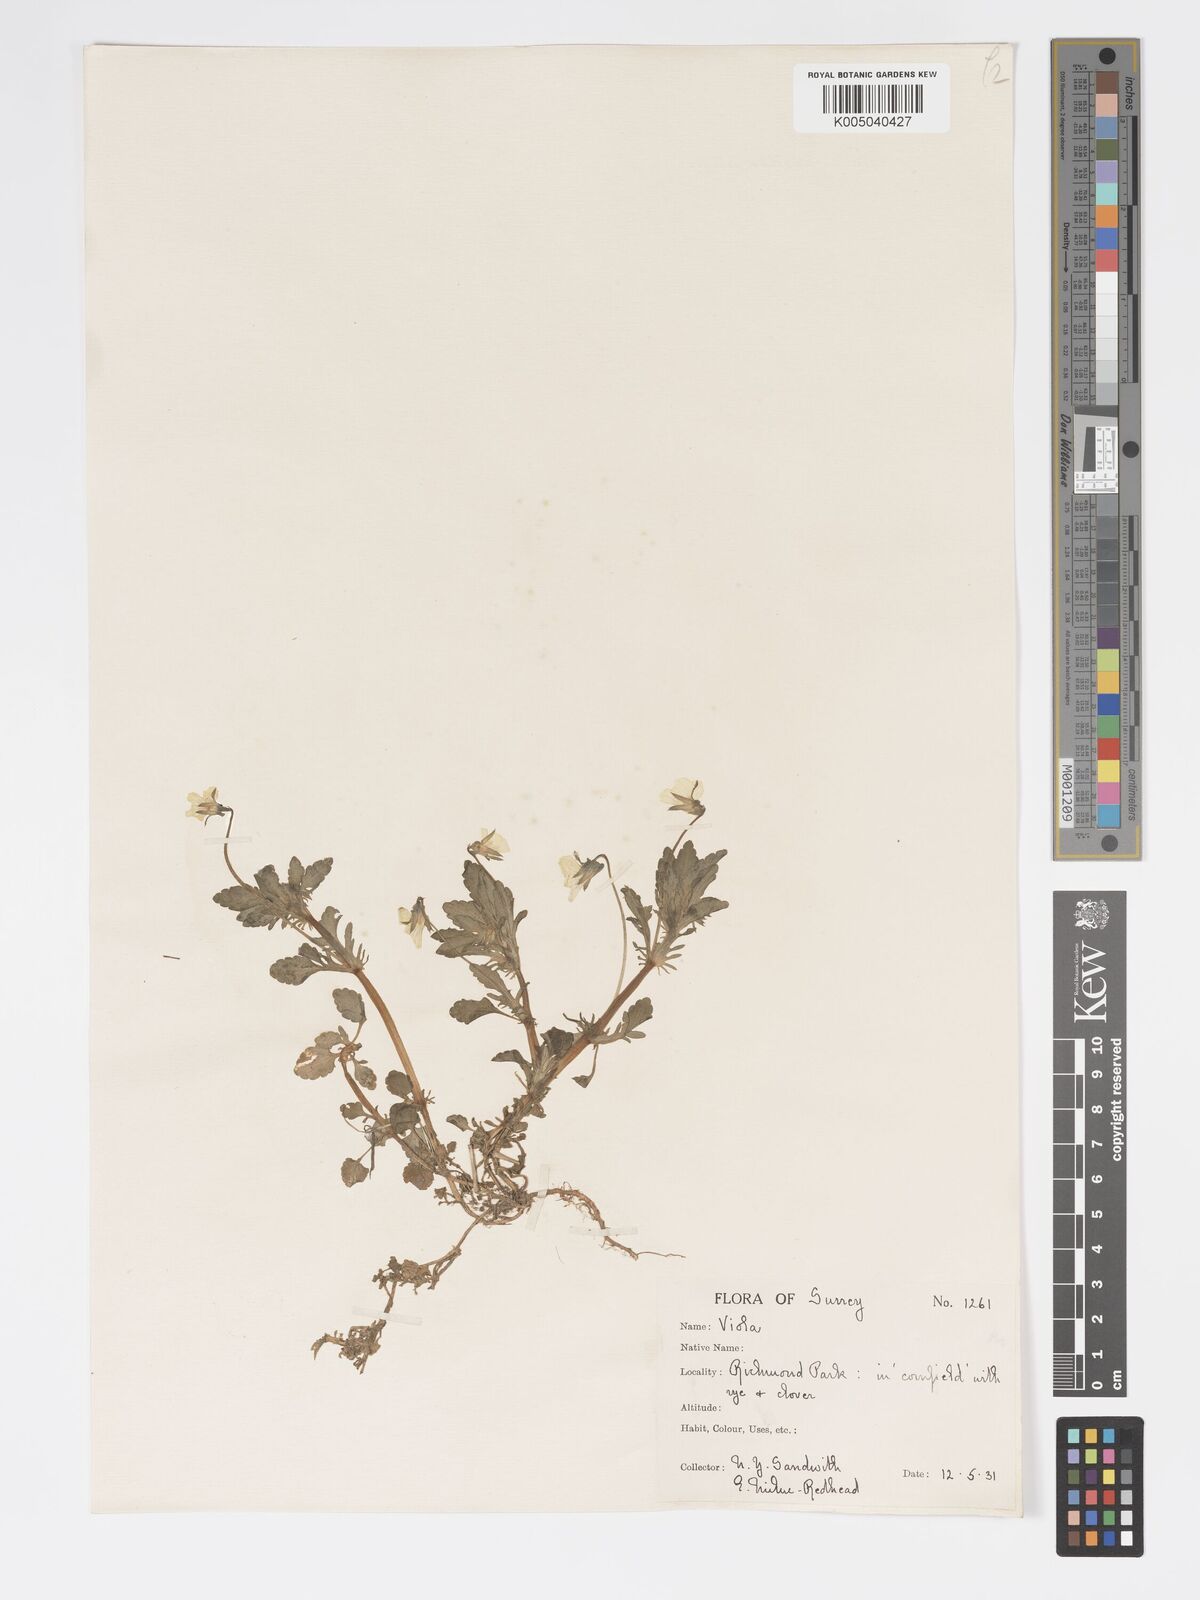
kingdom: Plantae
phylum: Tracheophyta
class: Magnoliopsida
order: Malpighiales
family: Violaceae
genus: Viola
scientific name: Viola arvensis
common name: Field pansy
